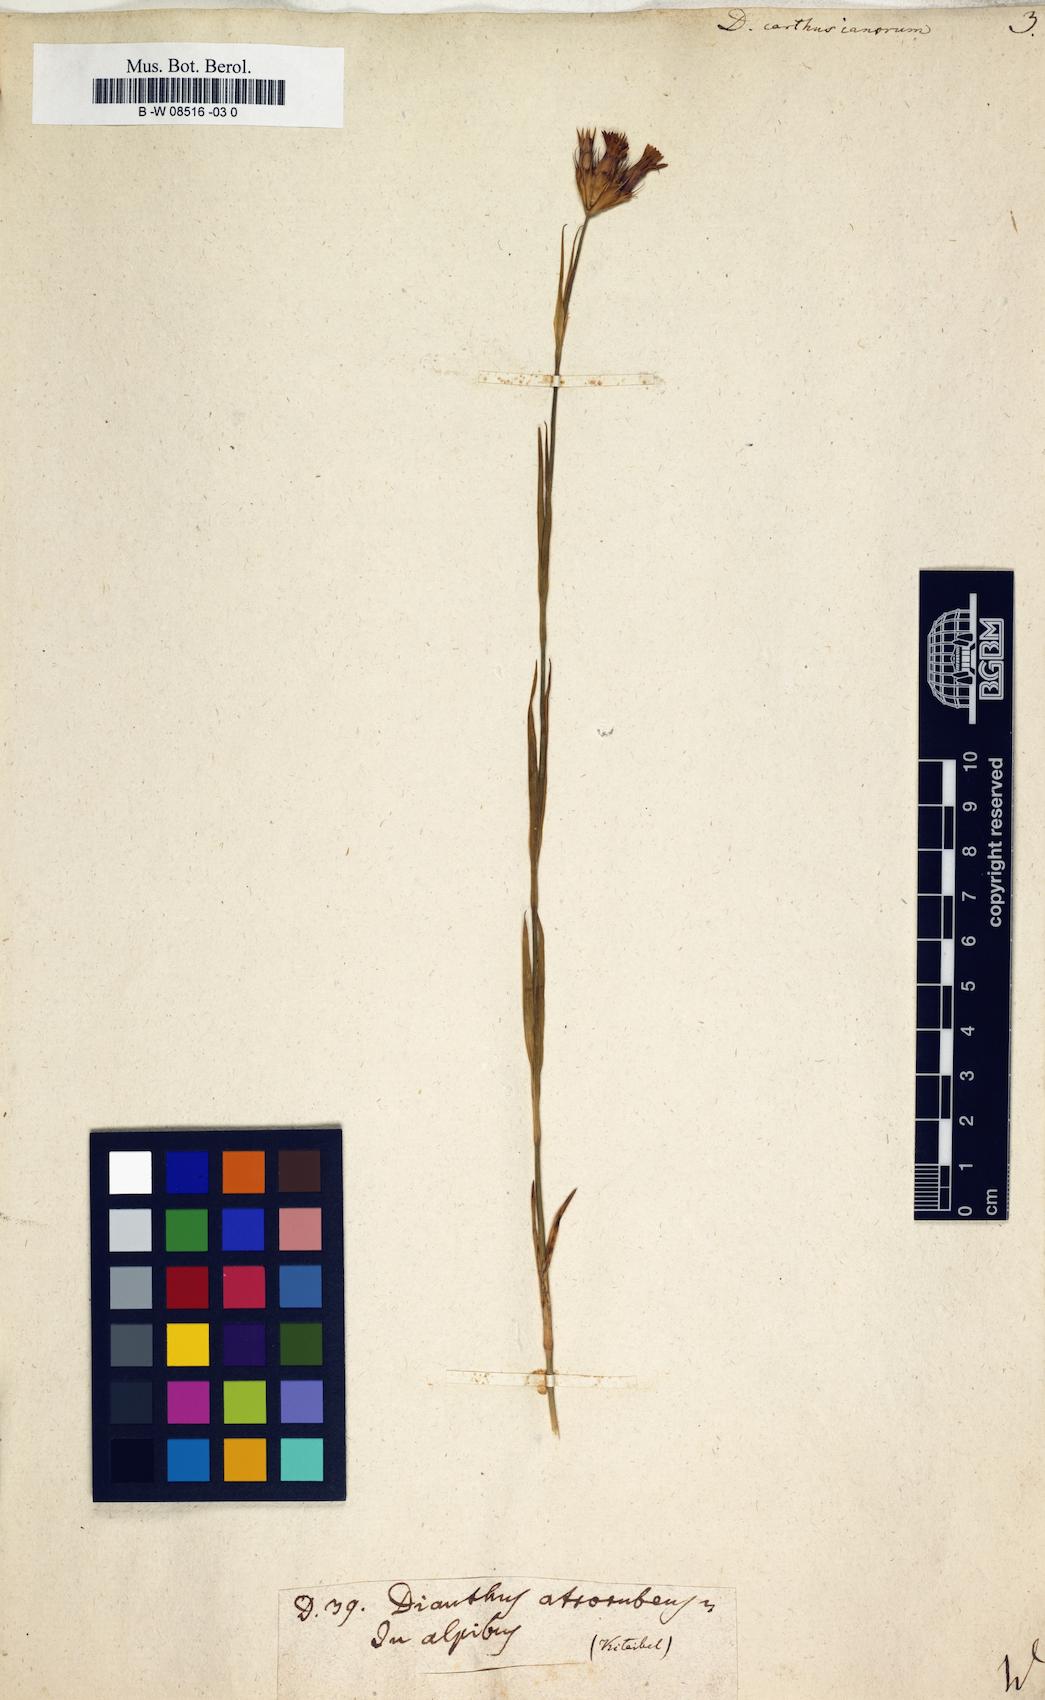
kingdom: Plantae
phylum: Tracheophyta
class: Magnoliopsida
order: Caryophyllales
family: Caryophyllaceae
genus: Dianthus
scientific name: Dianthus carthusianorum
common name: Carthusian pink
